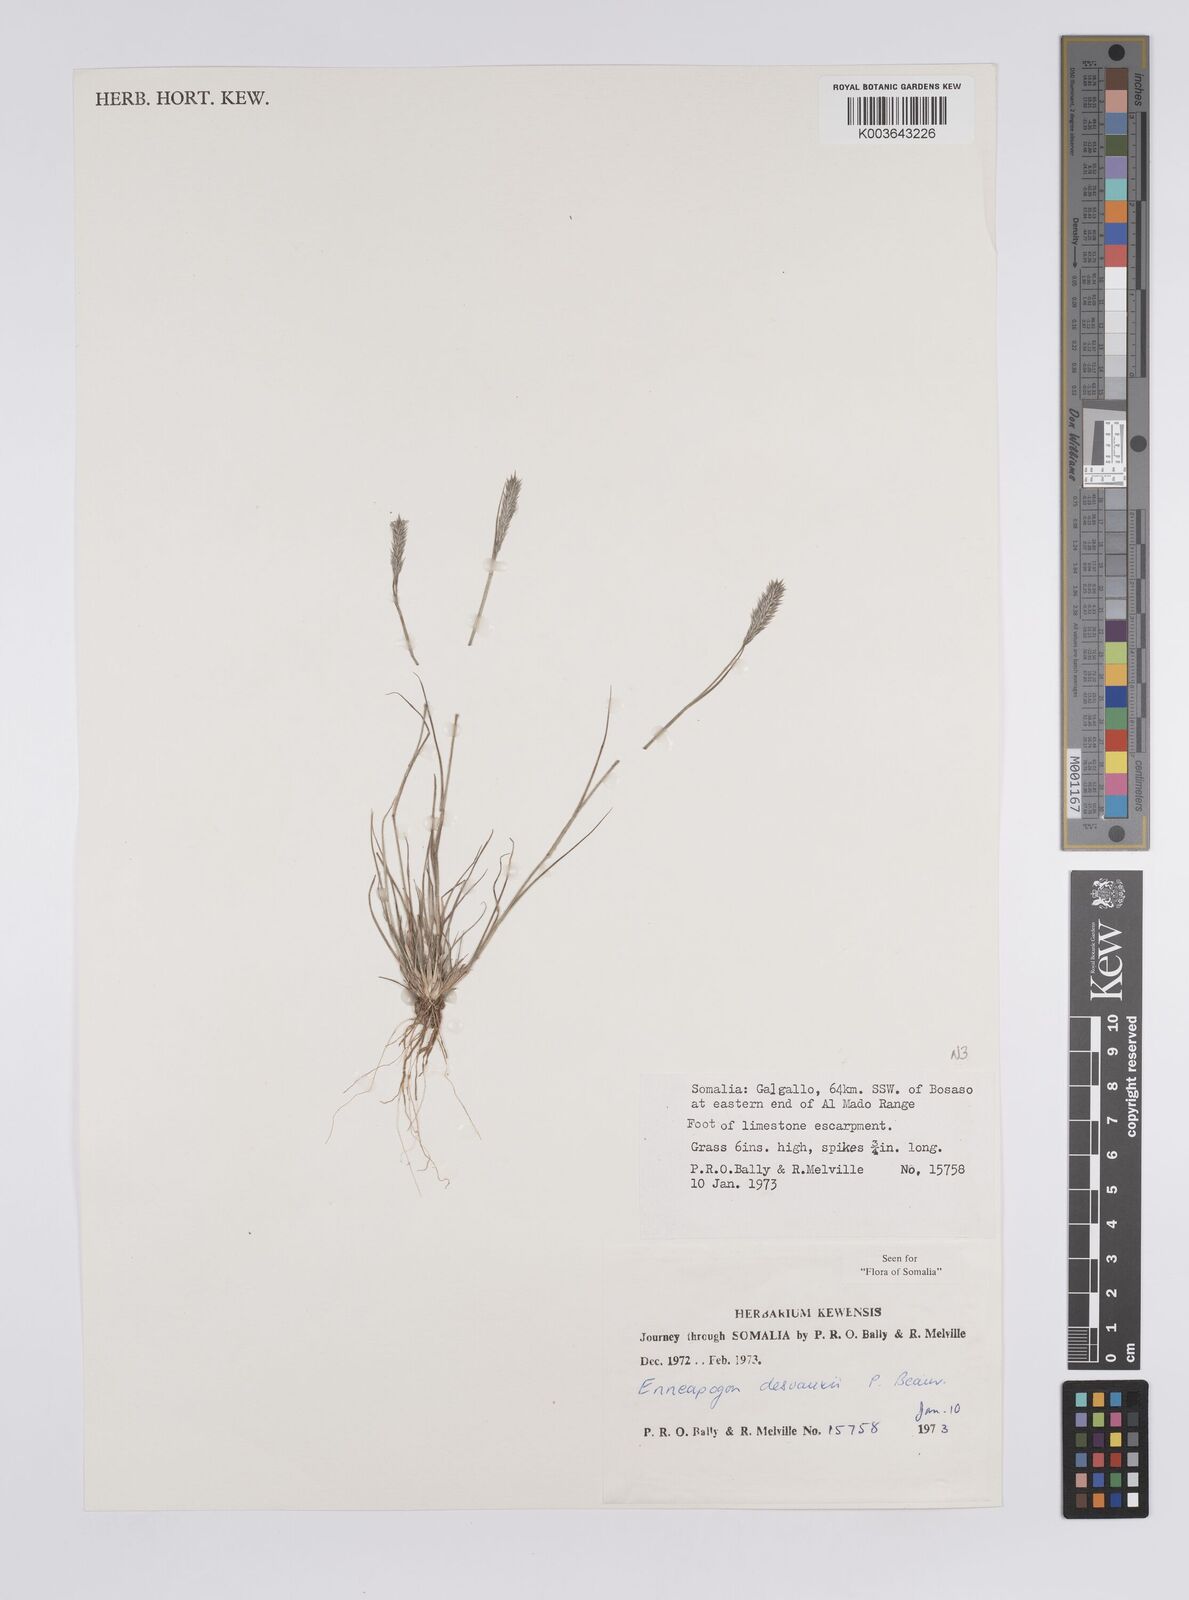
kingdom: Plantae
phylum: Tracheophyta
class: Liliopsida
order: Poales
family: Poaceae
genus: Enneapogon
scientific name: Enneapogon desvauxii
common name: Feather pappus grass
